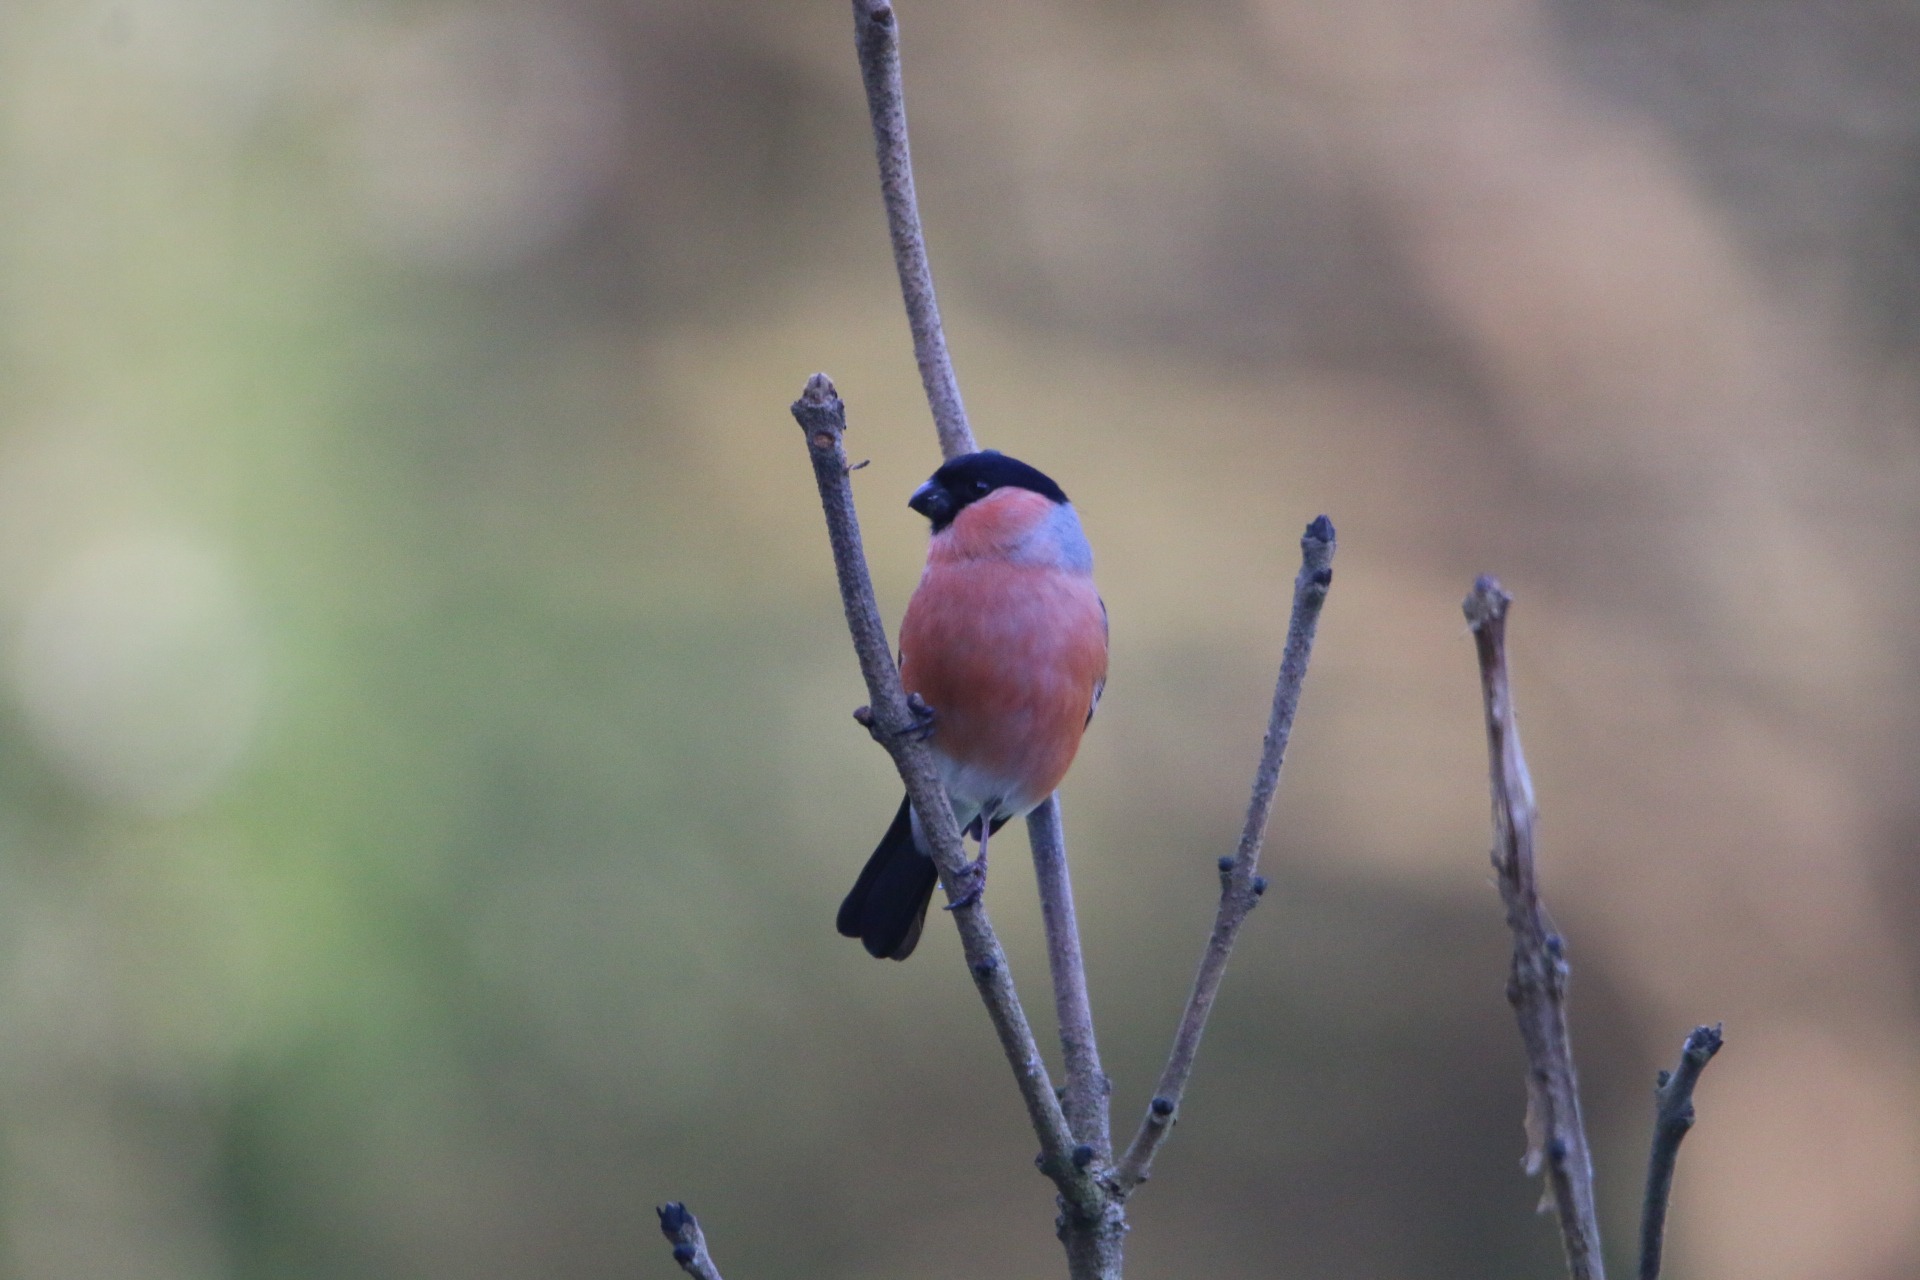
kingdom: Animalia
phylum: Chordata
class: Aves
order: Passeriformes
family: Fringillidae
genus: Pyrrhula
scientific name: Pyrrhula pyrrhula
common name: Dompap
